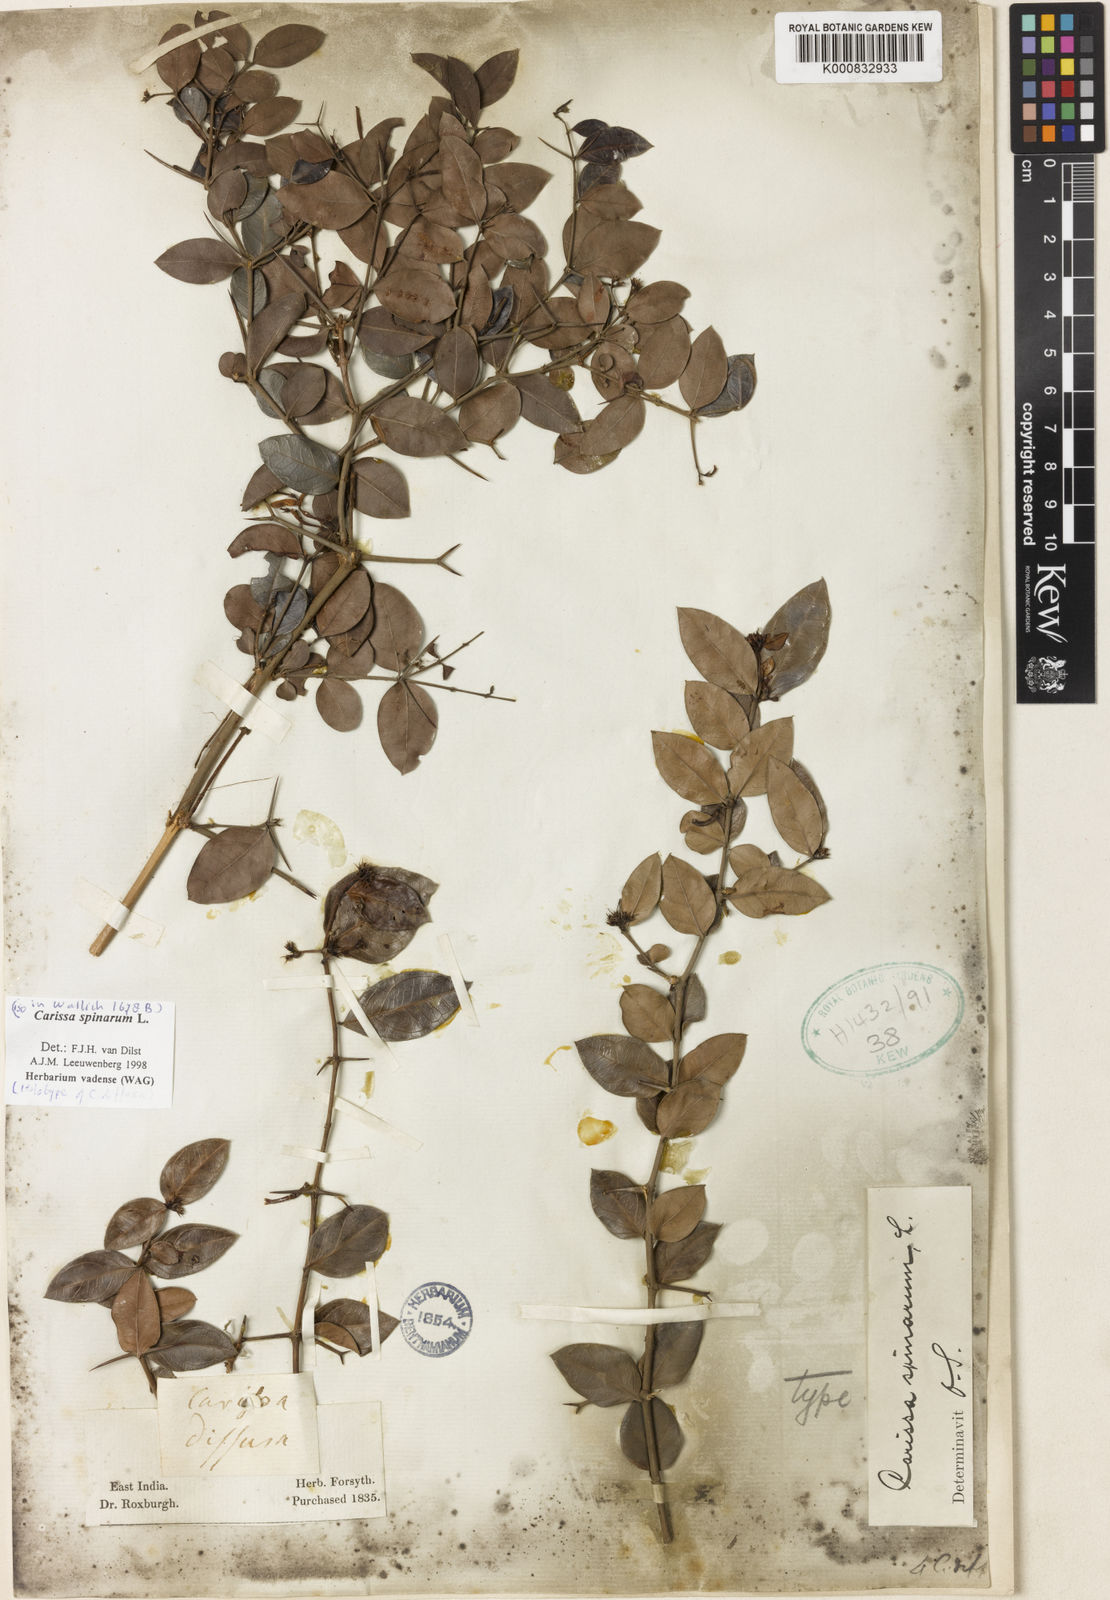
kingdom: Plantae
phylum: Tracheophyta
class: Magnoliopsida
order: Gentianales
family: Apocynaceae
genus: Carissa
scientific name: Carissa spinarum
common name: Egyptian carissa
